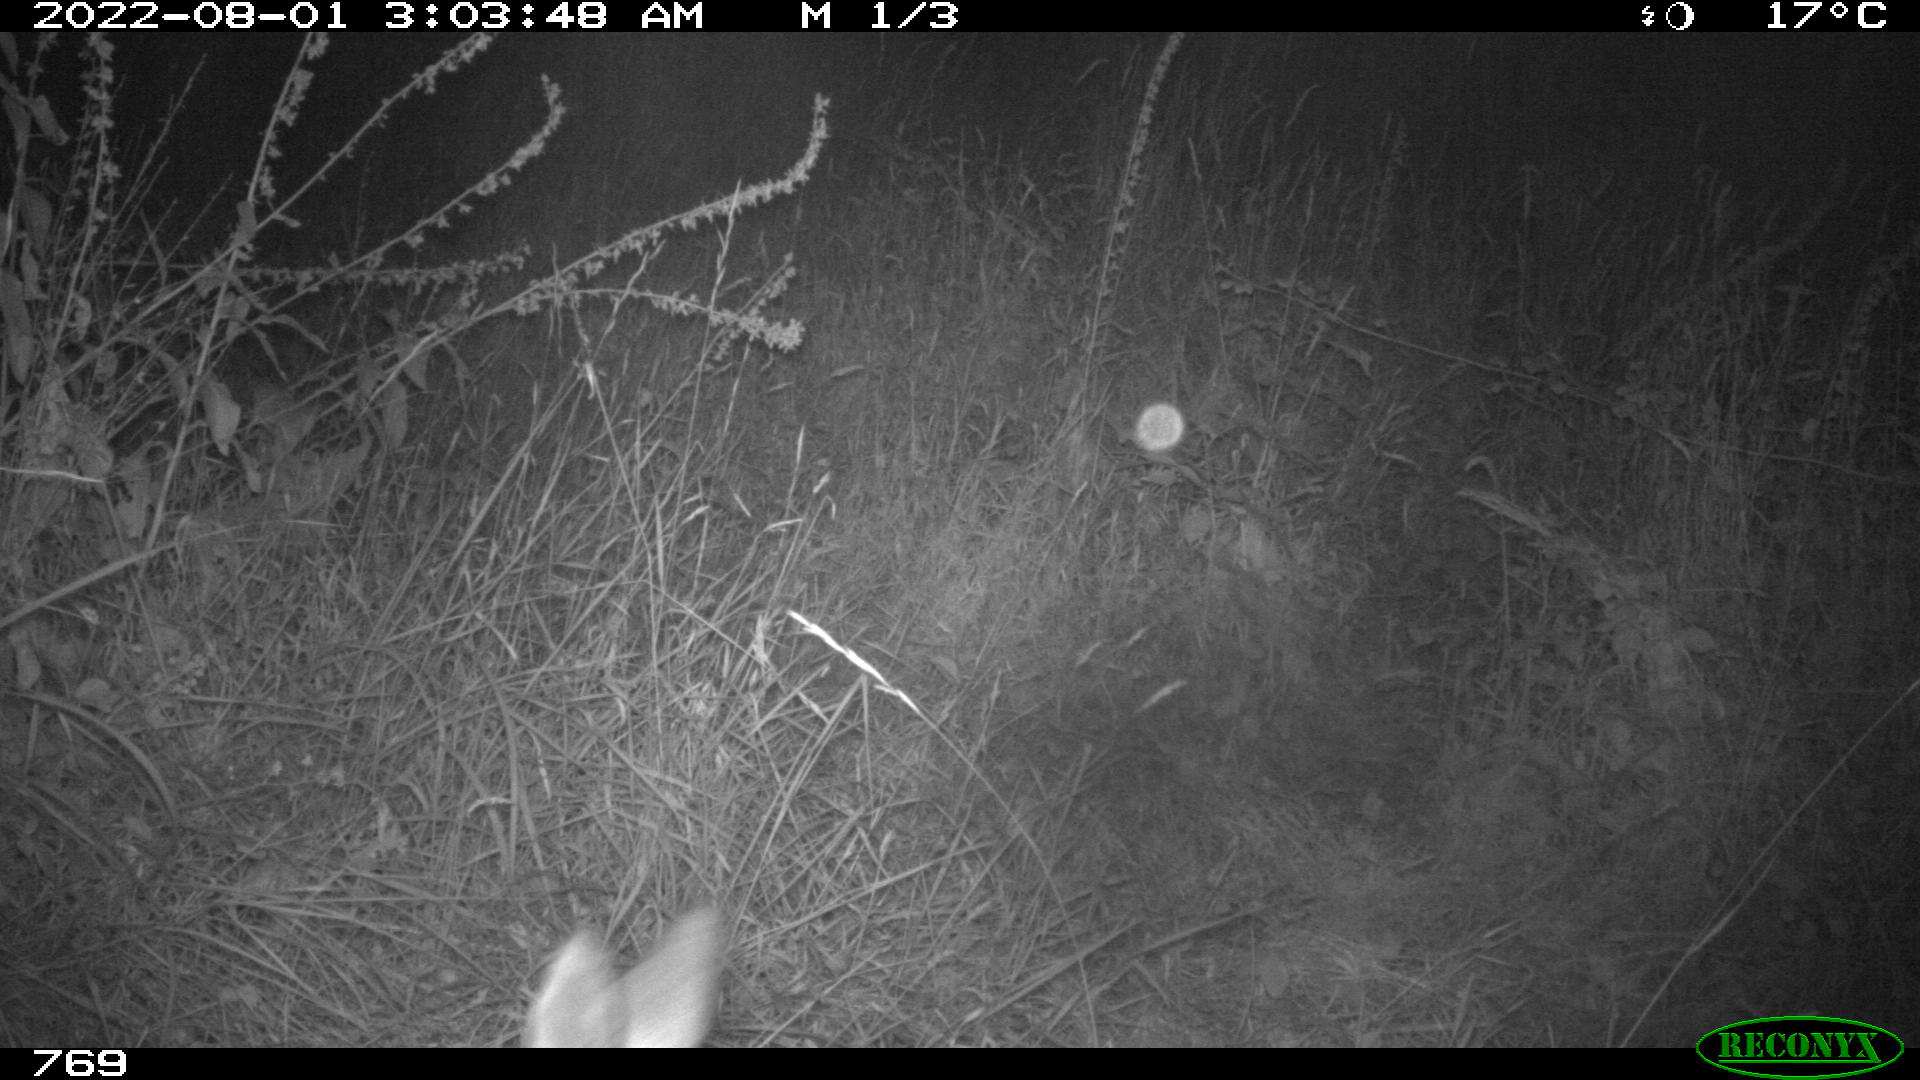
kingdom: Animalia
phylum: Chordata
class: Mammalia
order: Artiodactyla
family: Cervidae
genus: Capreolus
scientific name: Capreolus capreolus
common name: Western roe deer
